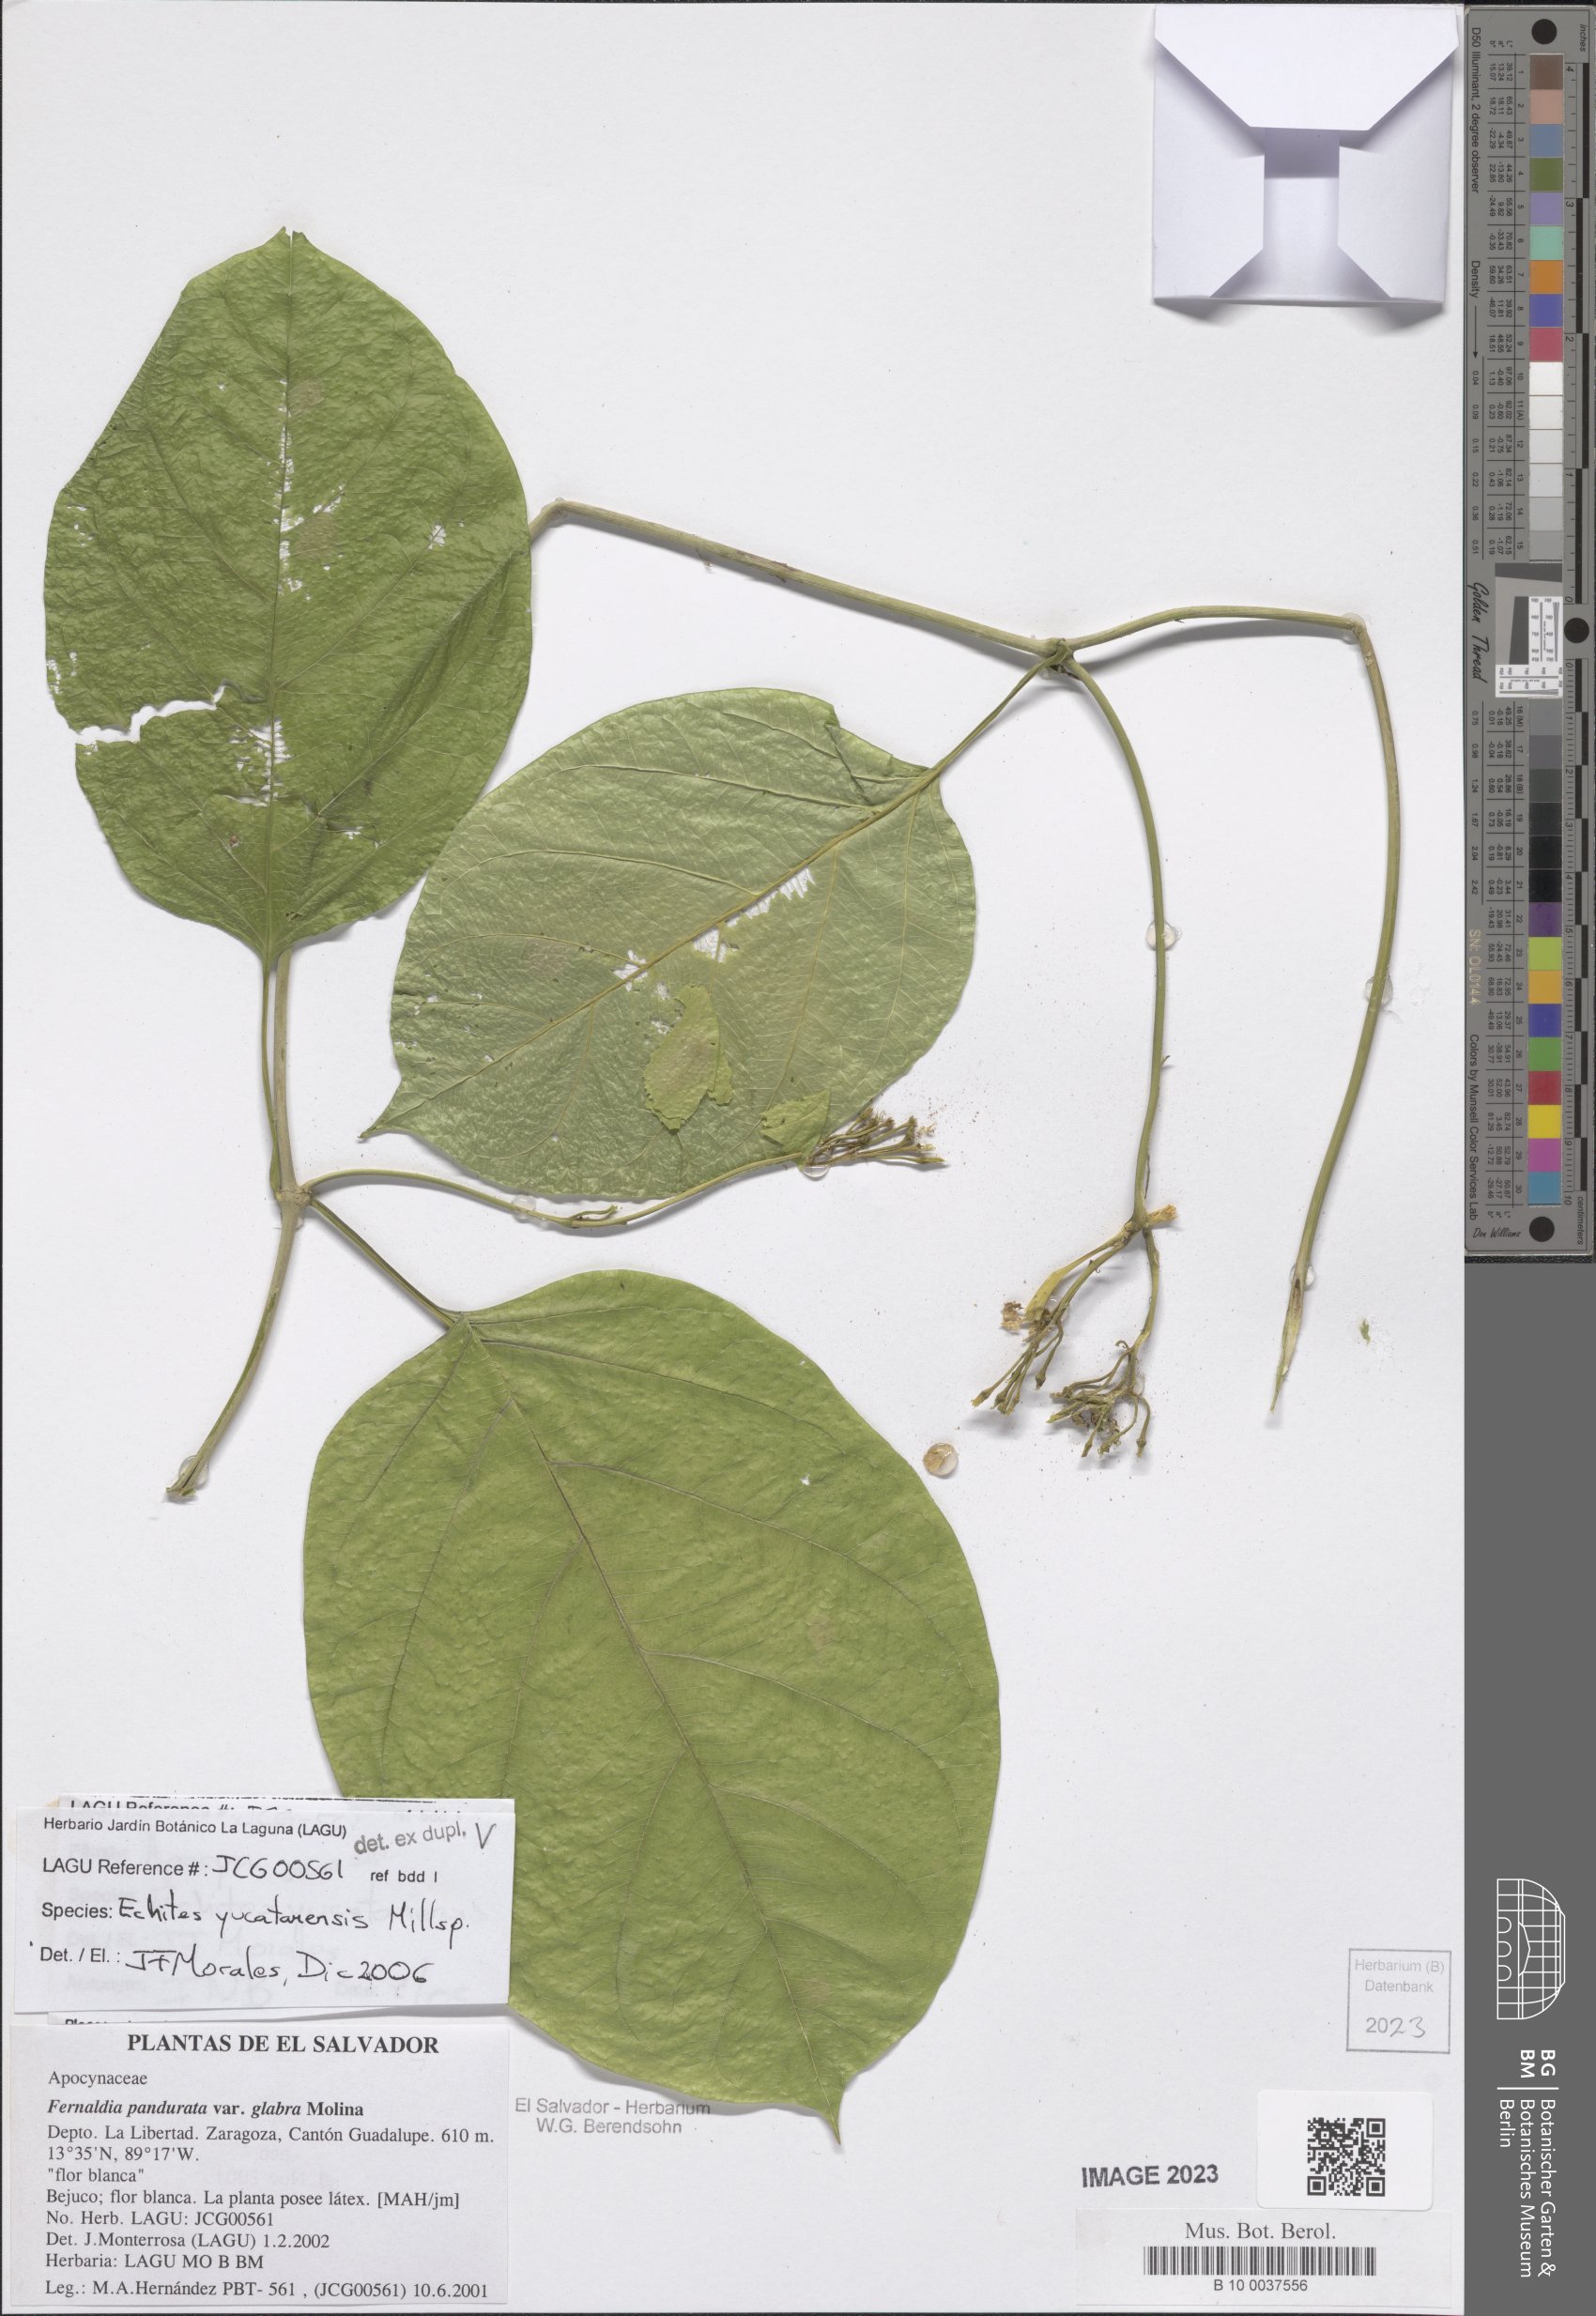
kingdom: Plantae
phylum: Tracheophyta
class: Magnoliopsida
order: Gentianales
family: Apocynaceae
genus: Echites
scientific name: Echites yucatanensis
